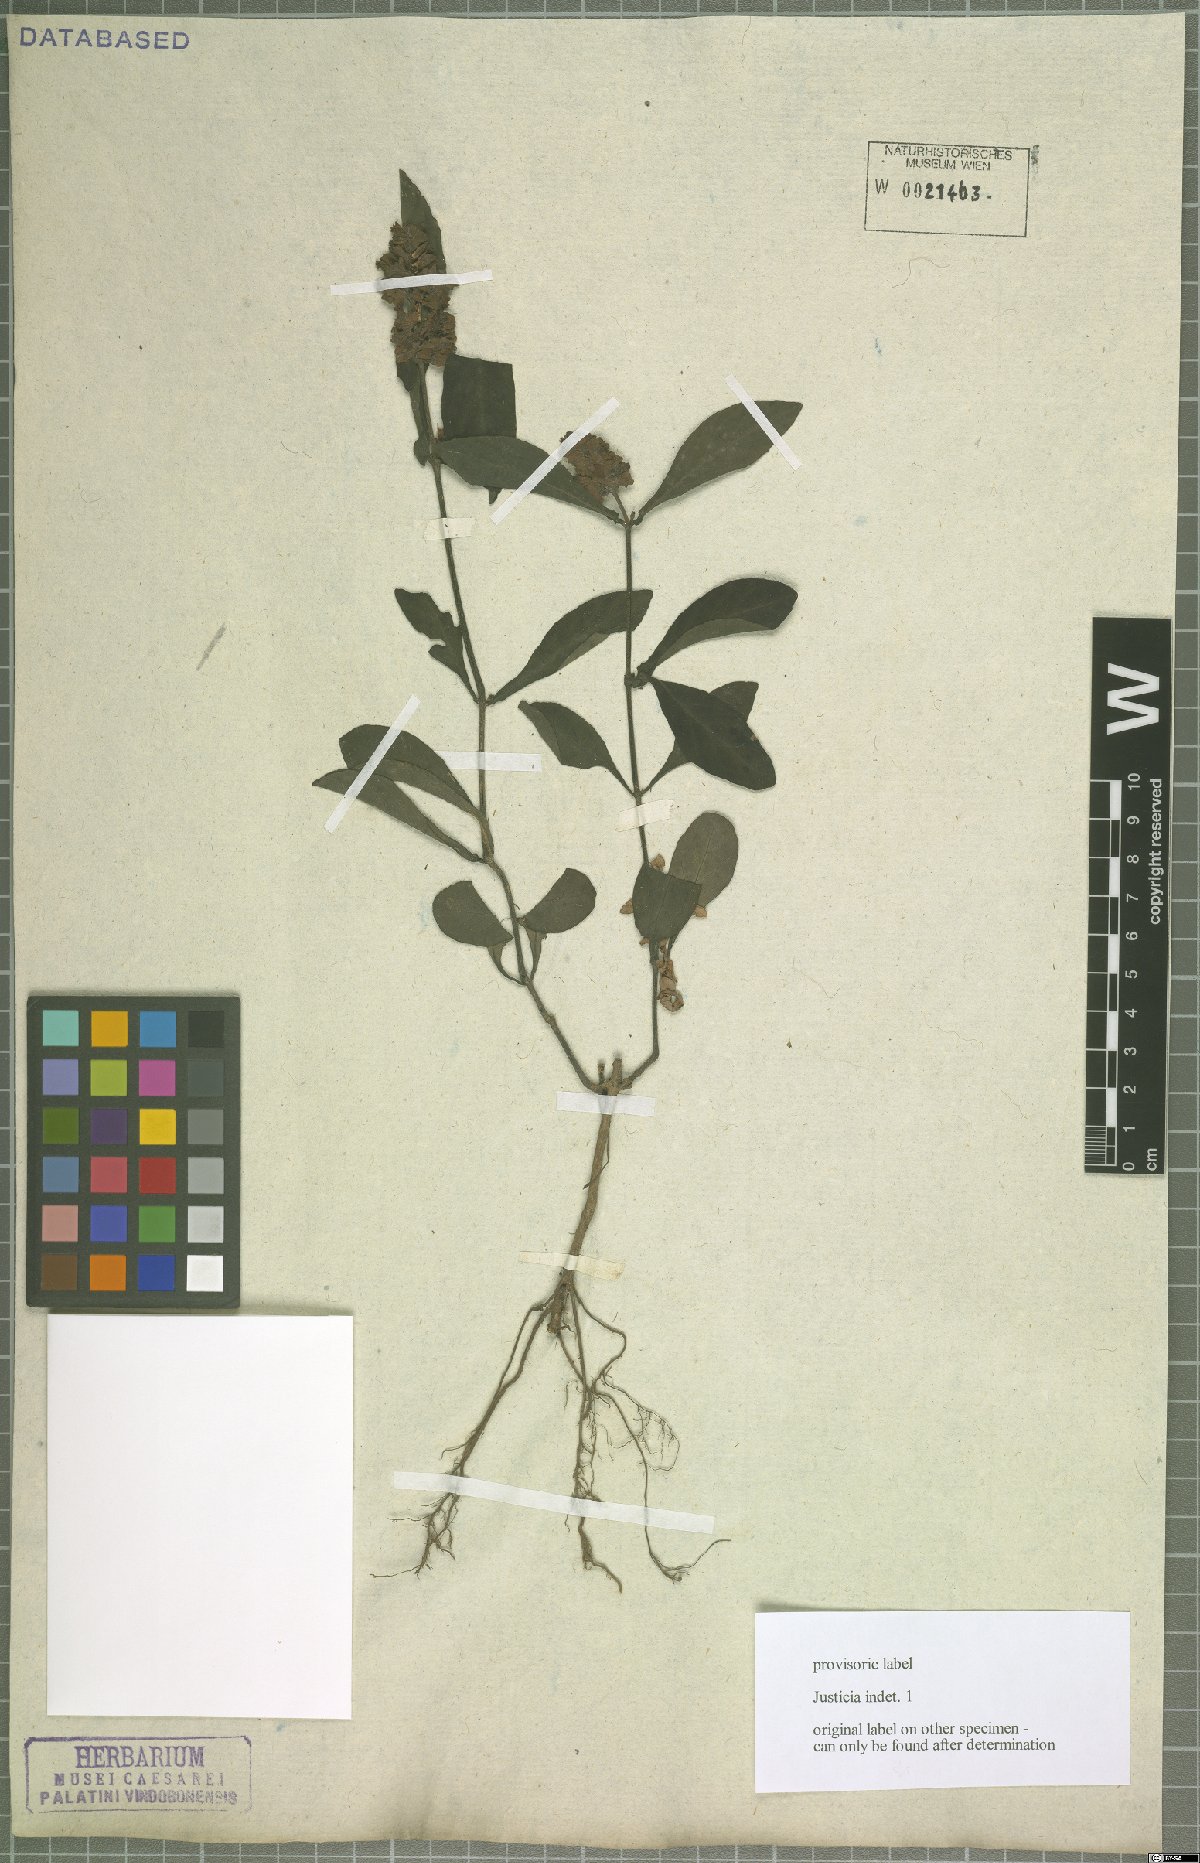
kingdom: Plantae
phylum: Tracheophyta
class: Magnoliopsida
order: Lamiales
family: Acanthaceae
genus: Justicia
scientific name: Justicia
